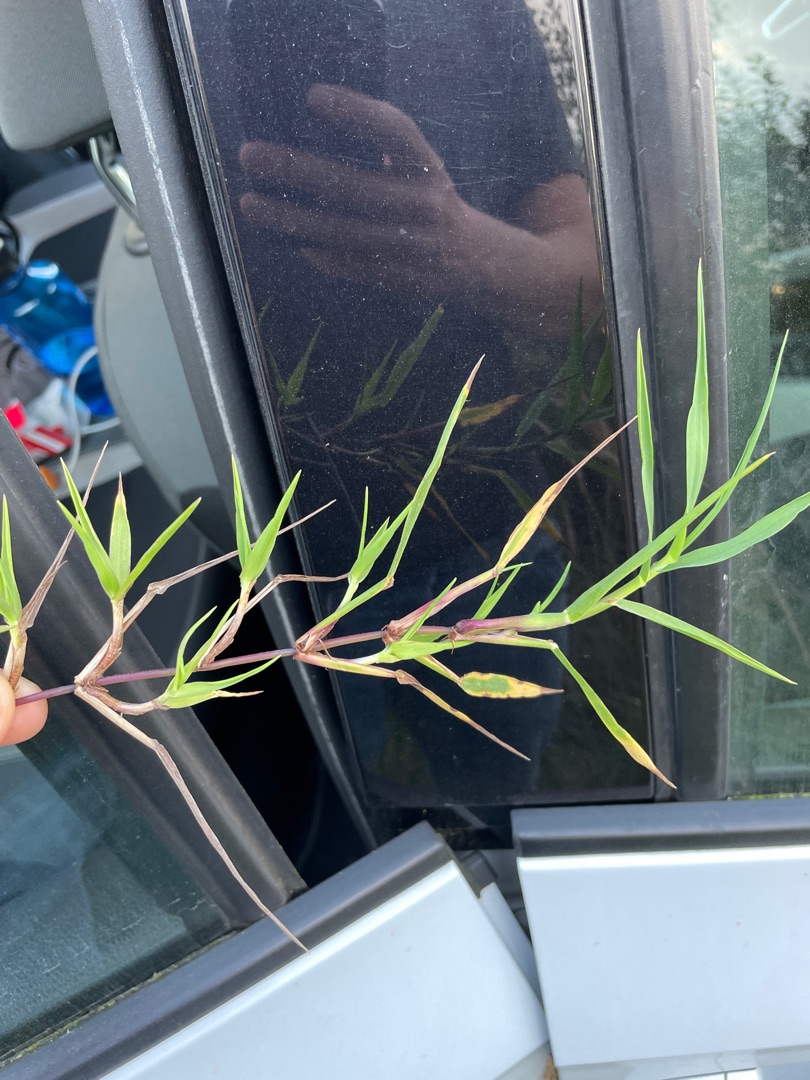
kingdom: Plantae
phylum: Tracheophyta
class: Liliopsida
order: Poales
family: Poaceae
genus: Agrostis
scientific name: Agrostis stolonifera
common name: Kryb-hvene
